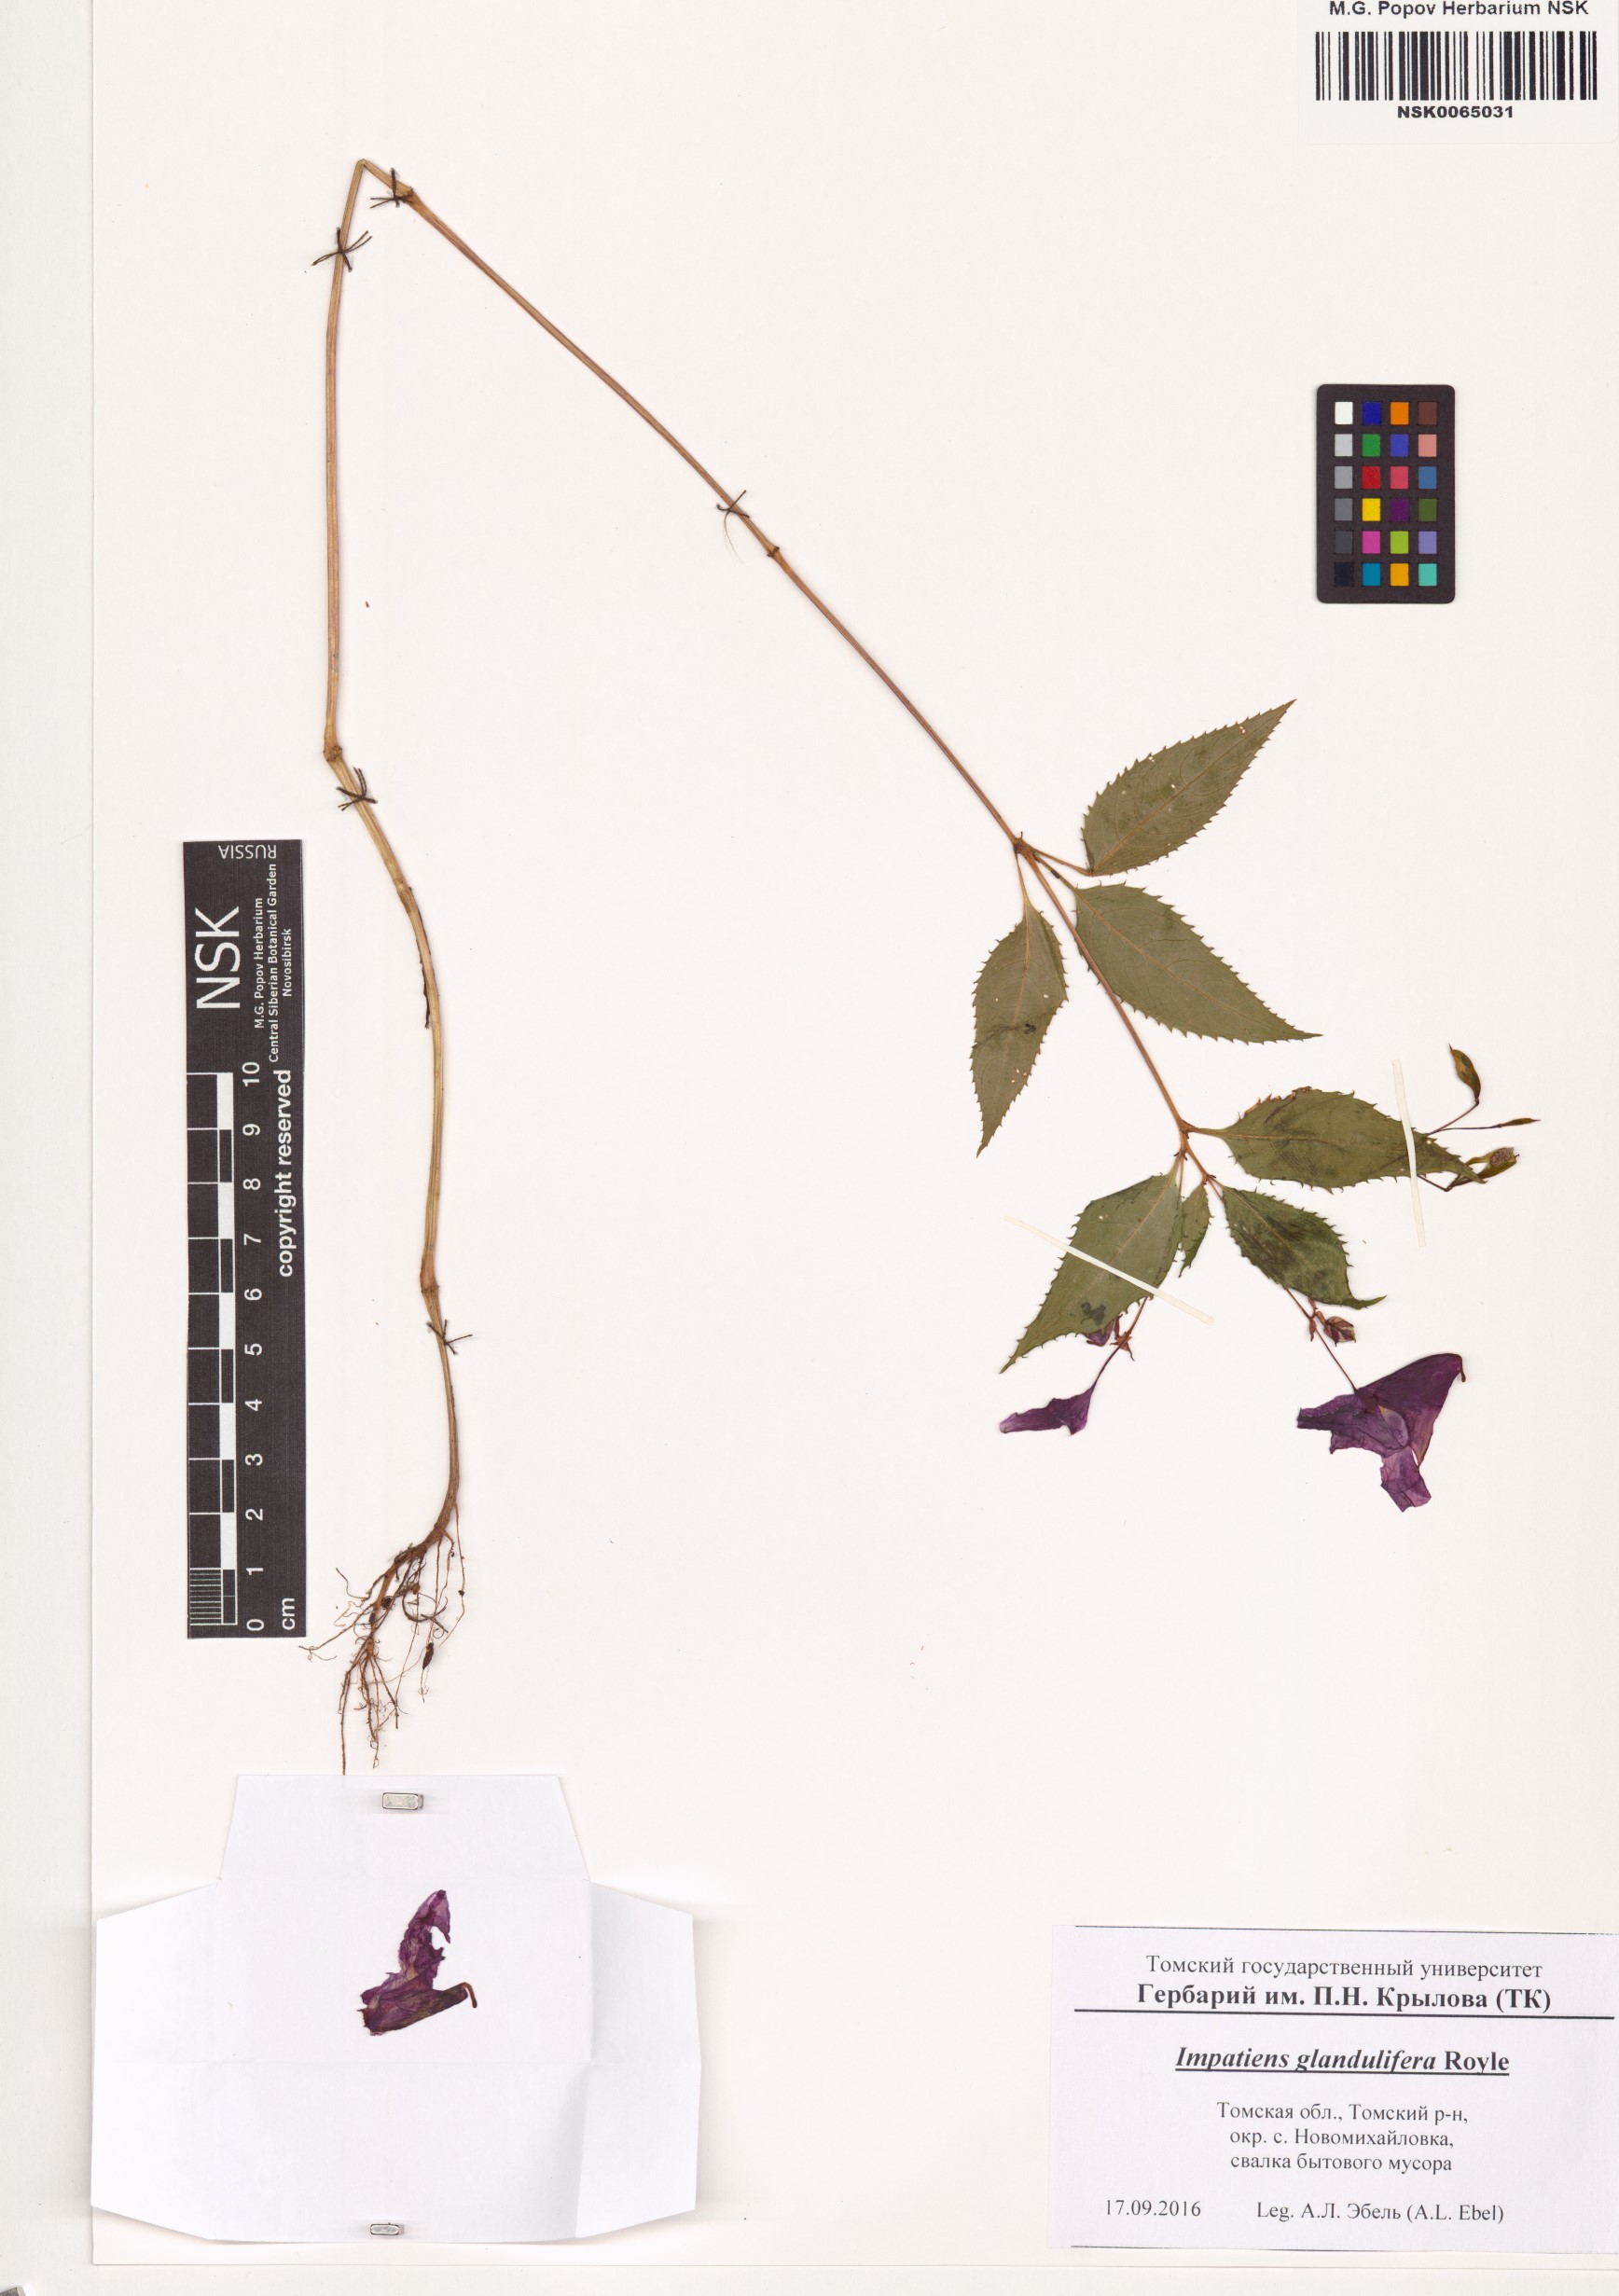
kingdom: Plantae
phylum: Tracheophyta
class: Magnoliopsida
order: Ericales
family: Balsaminaceae
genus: Impatiens
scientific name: Impatiens glandulifera
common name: Himalayan balsam
